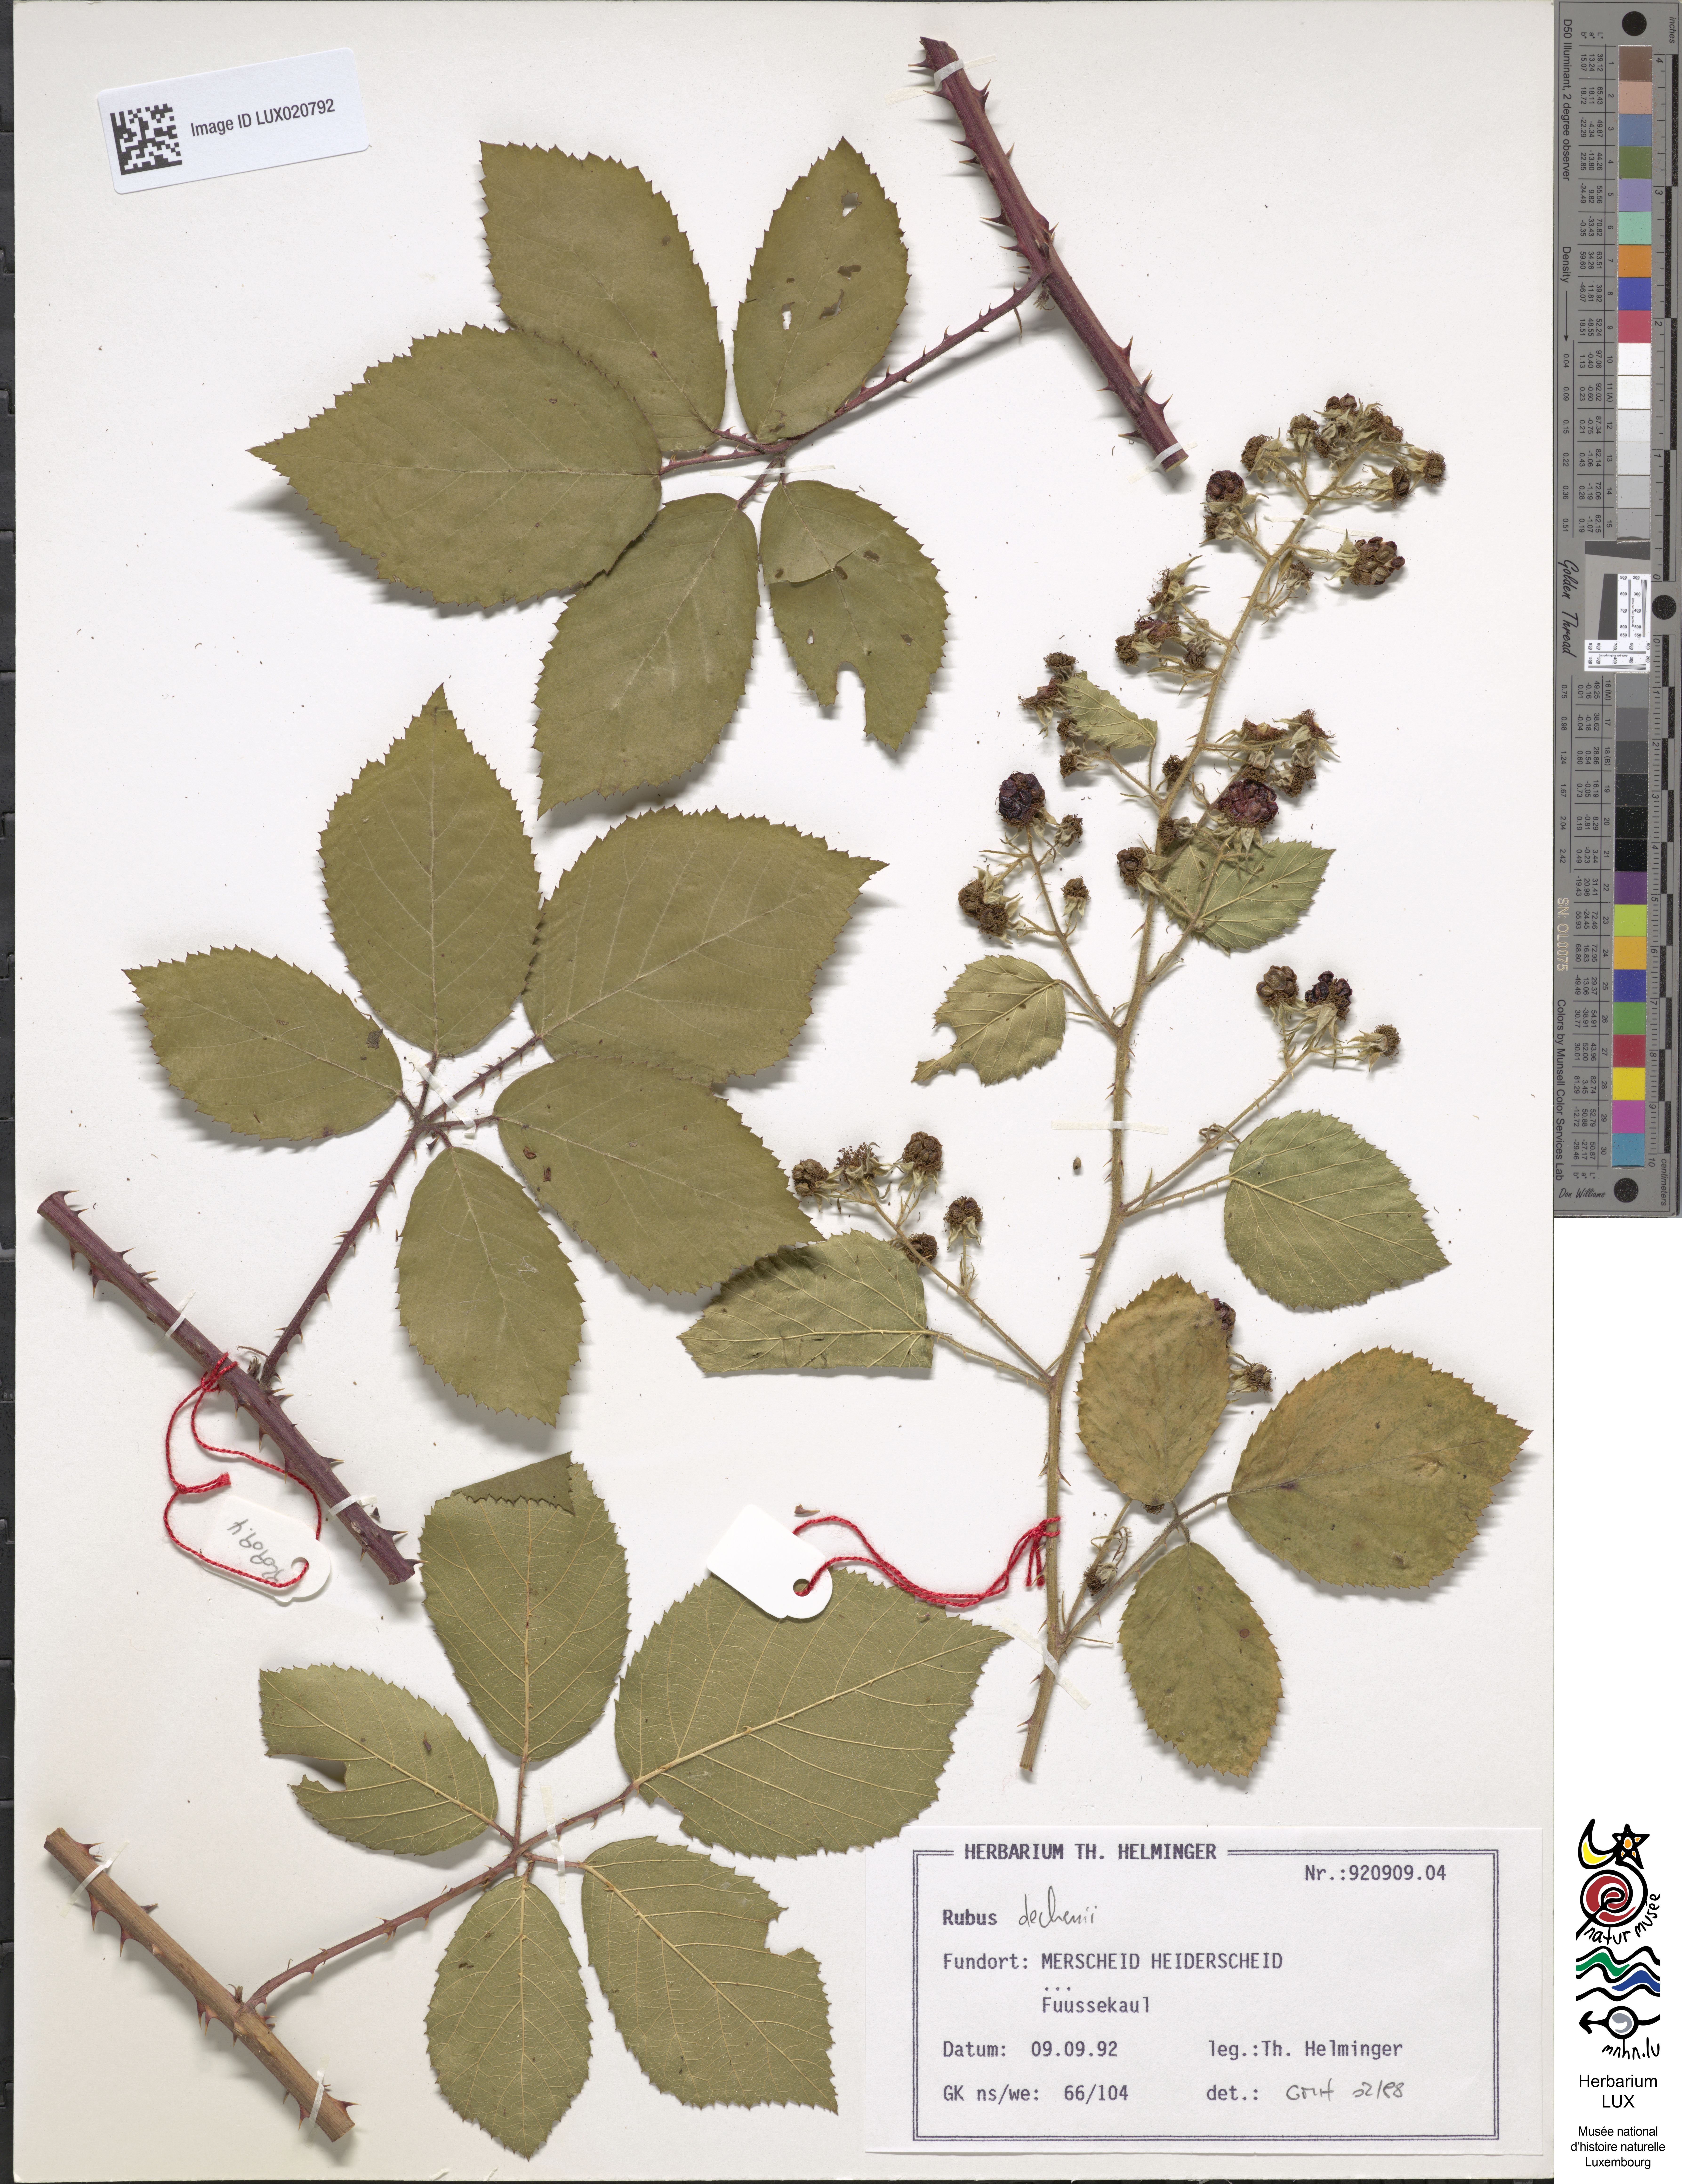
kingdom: Plantae
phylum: Tracheophyta
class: Magnoliopsida
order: Rosales
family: Rosaceae
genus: Rubus
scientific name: Rubus dechenii
